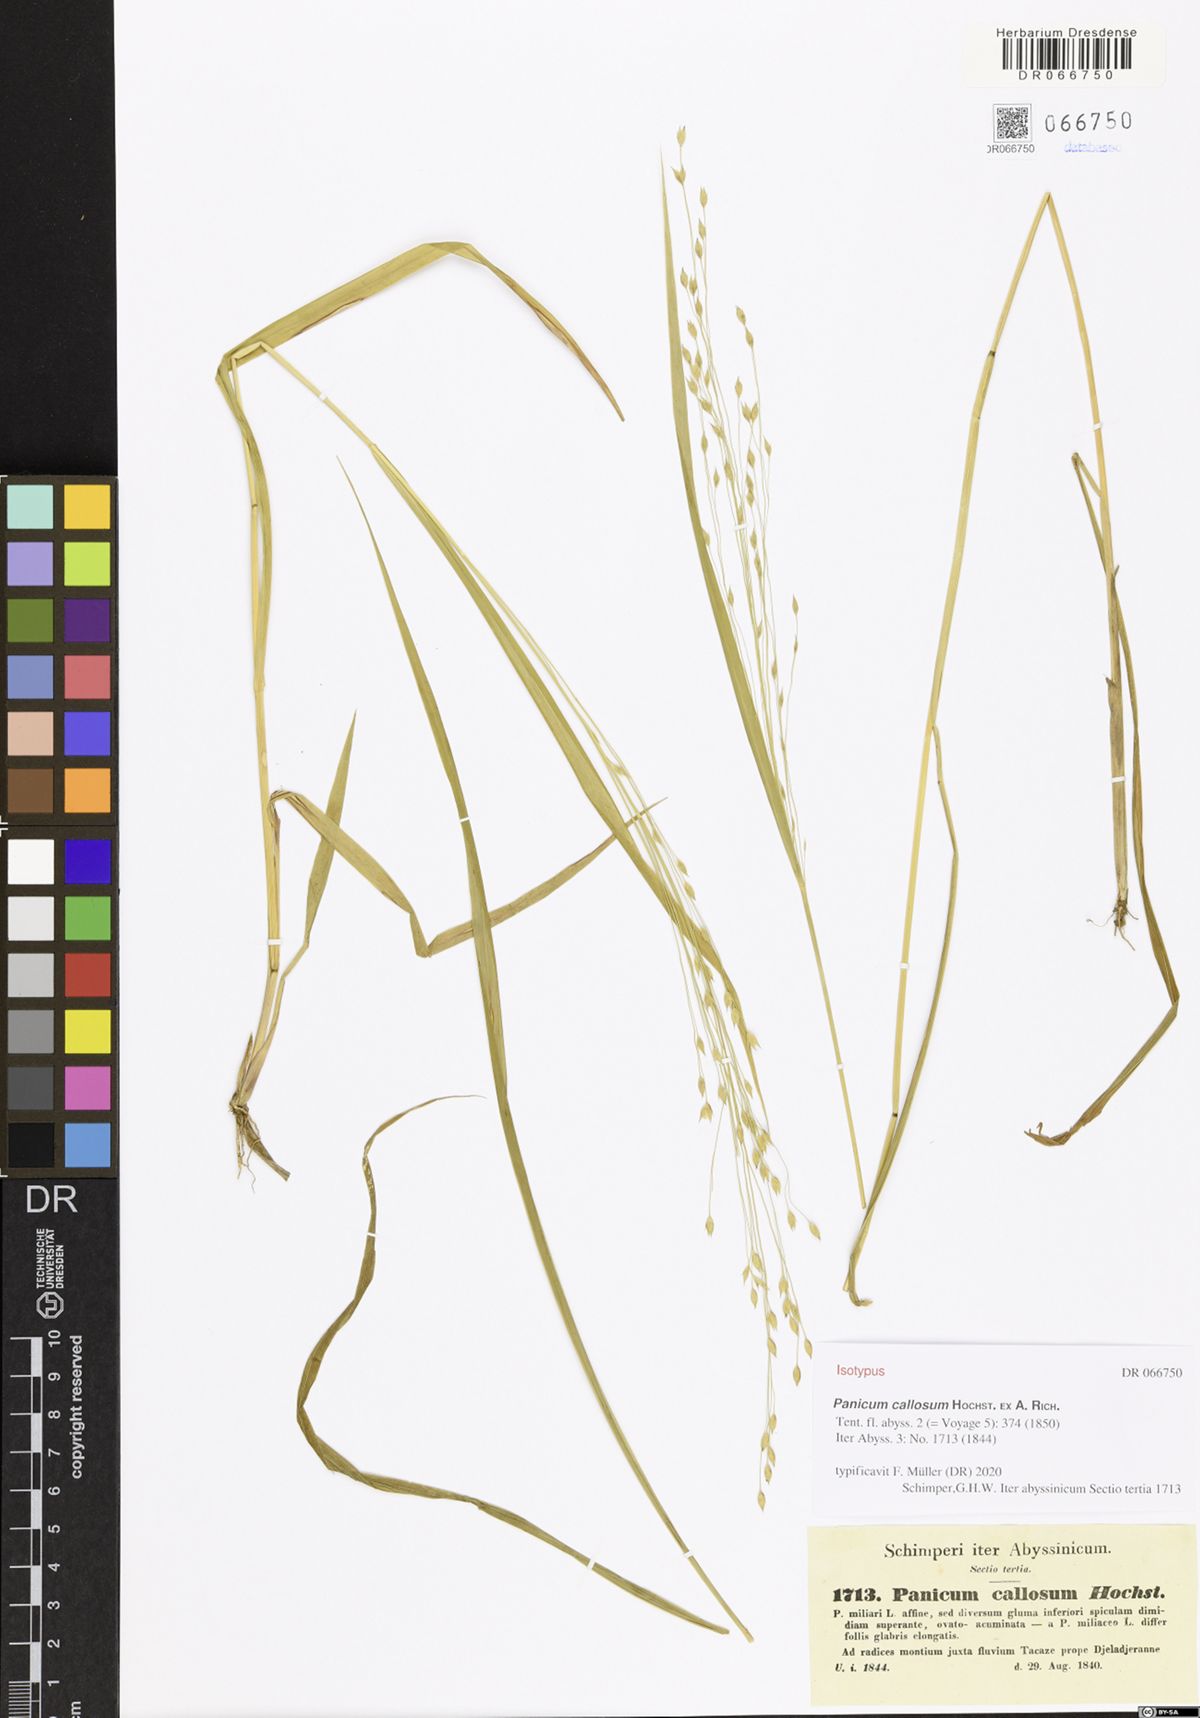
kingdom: Plantae
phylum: Tracheophyta
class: Liliopsida
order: Poales
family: Poaceae
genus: Panicum
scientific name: Panicum callosum
